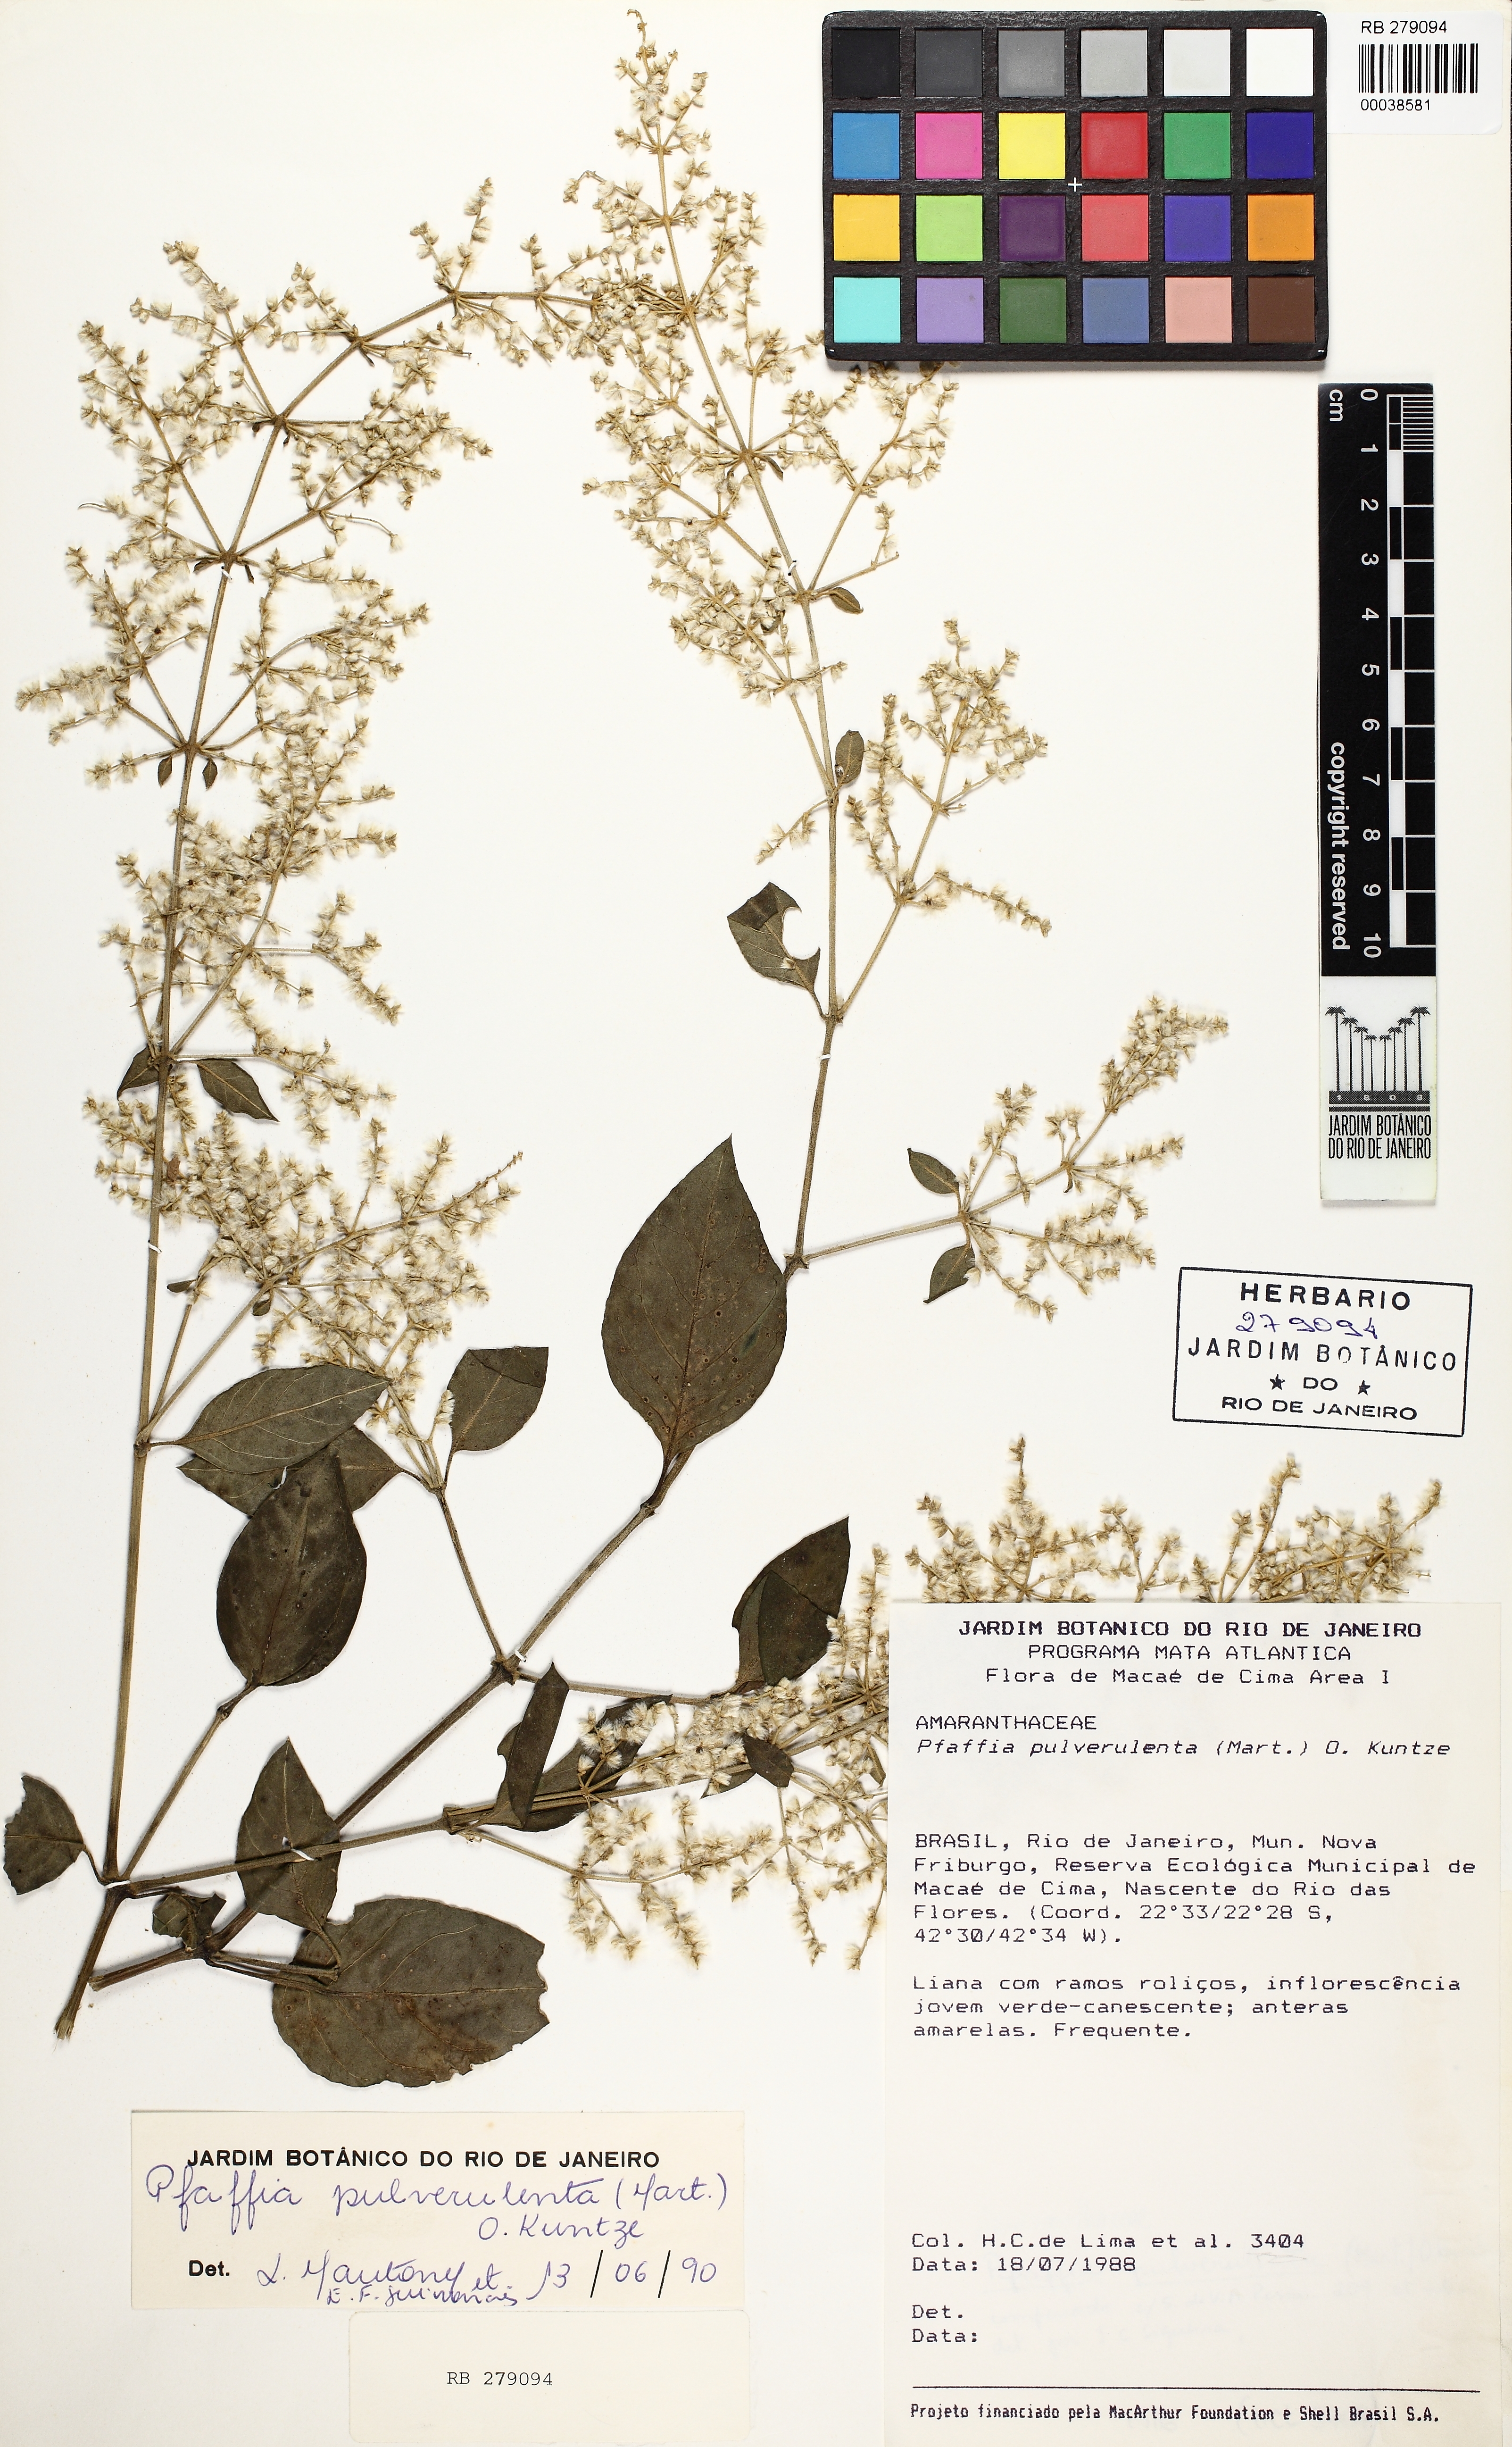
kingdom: Plantae
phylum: Tracheophyta
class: Magnoliopsida
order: Caryophyllales
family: Amaranthaceae
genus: Hebanthe
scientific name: Hebanthe pulverulenta
